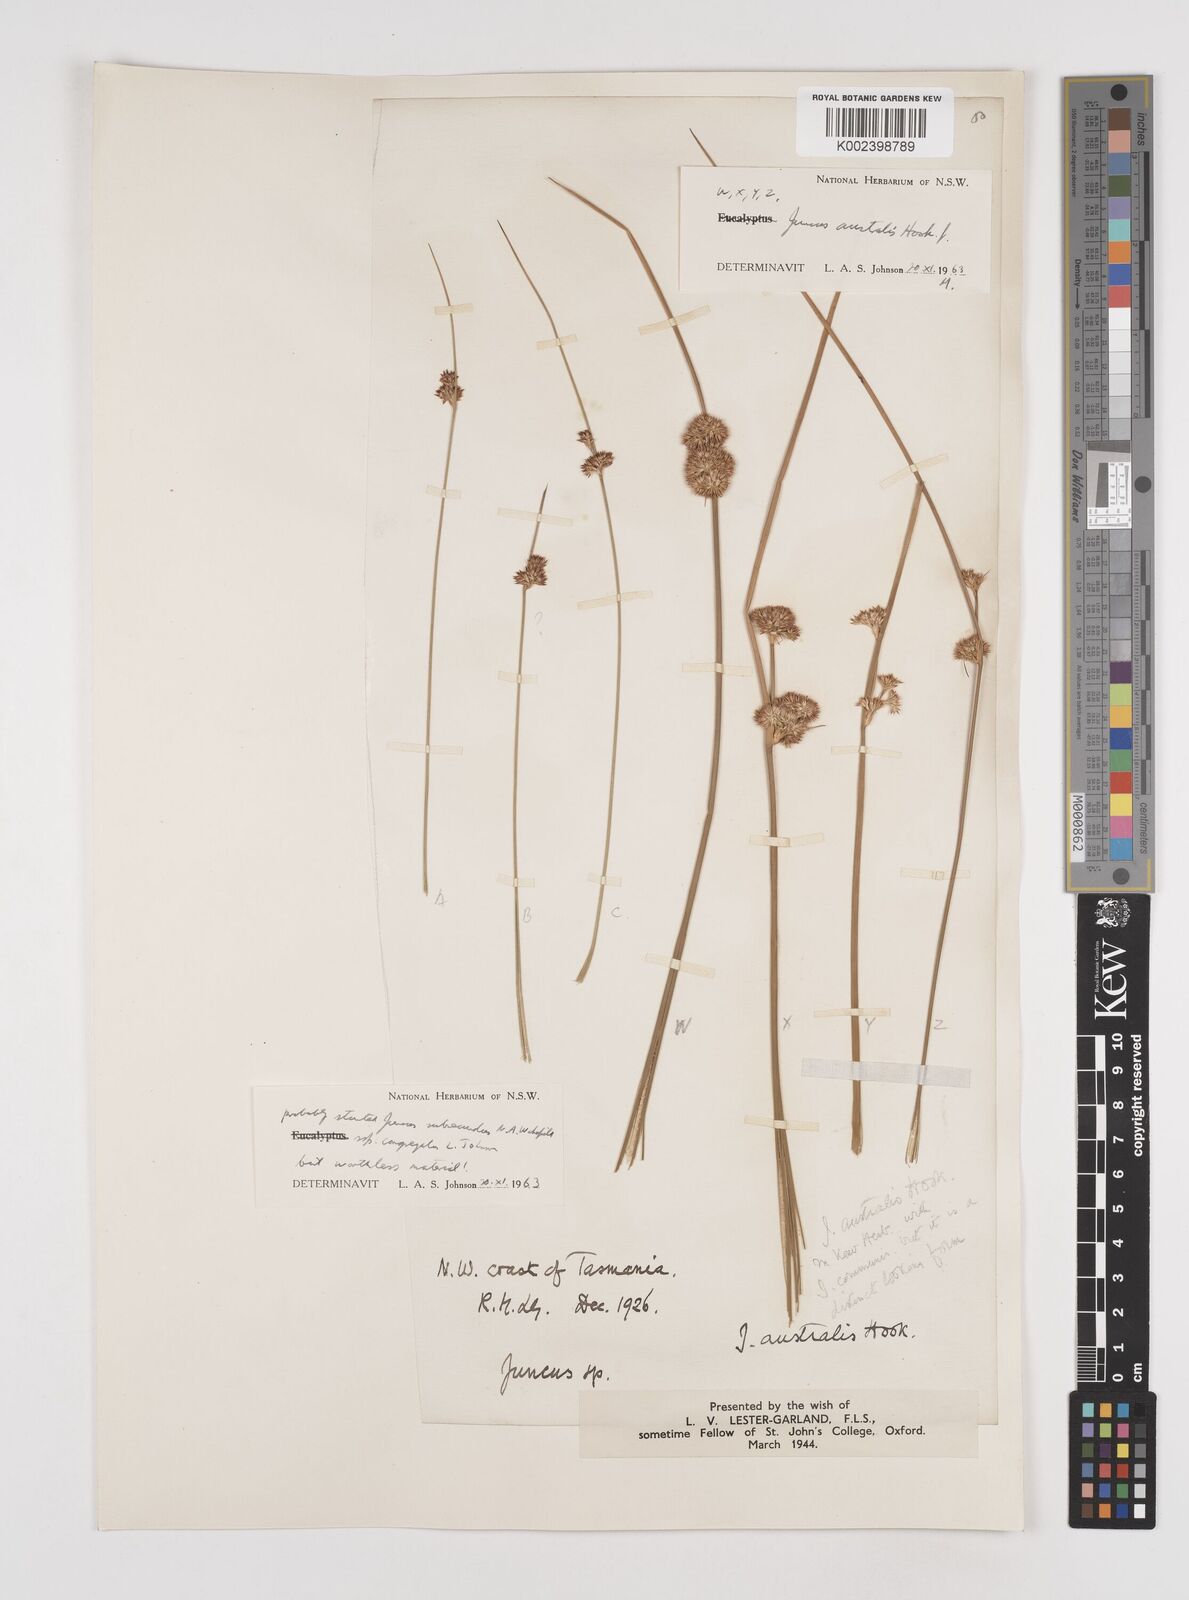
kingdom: Plantae
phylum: Tracheophyta
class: Liliopsida
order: Poales
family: Juncaceae
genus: Juncus
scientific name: Juncus australis
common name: Austral rush
